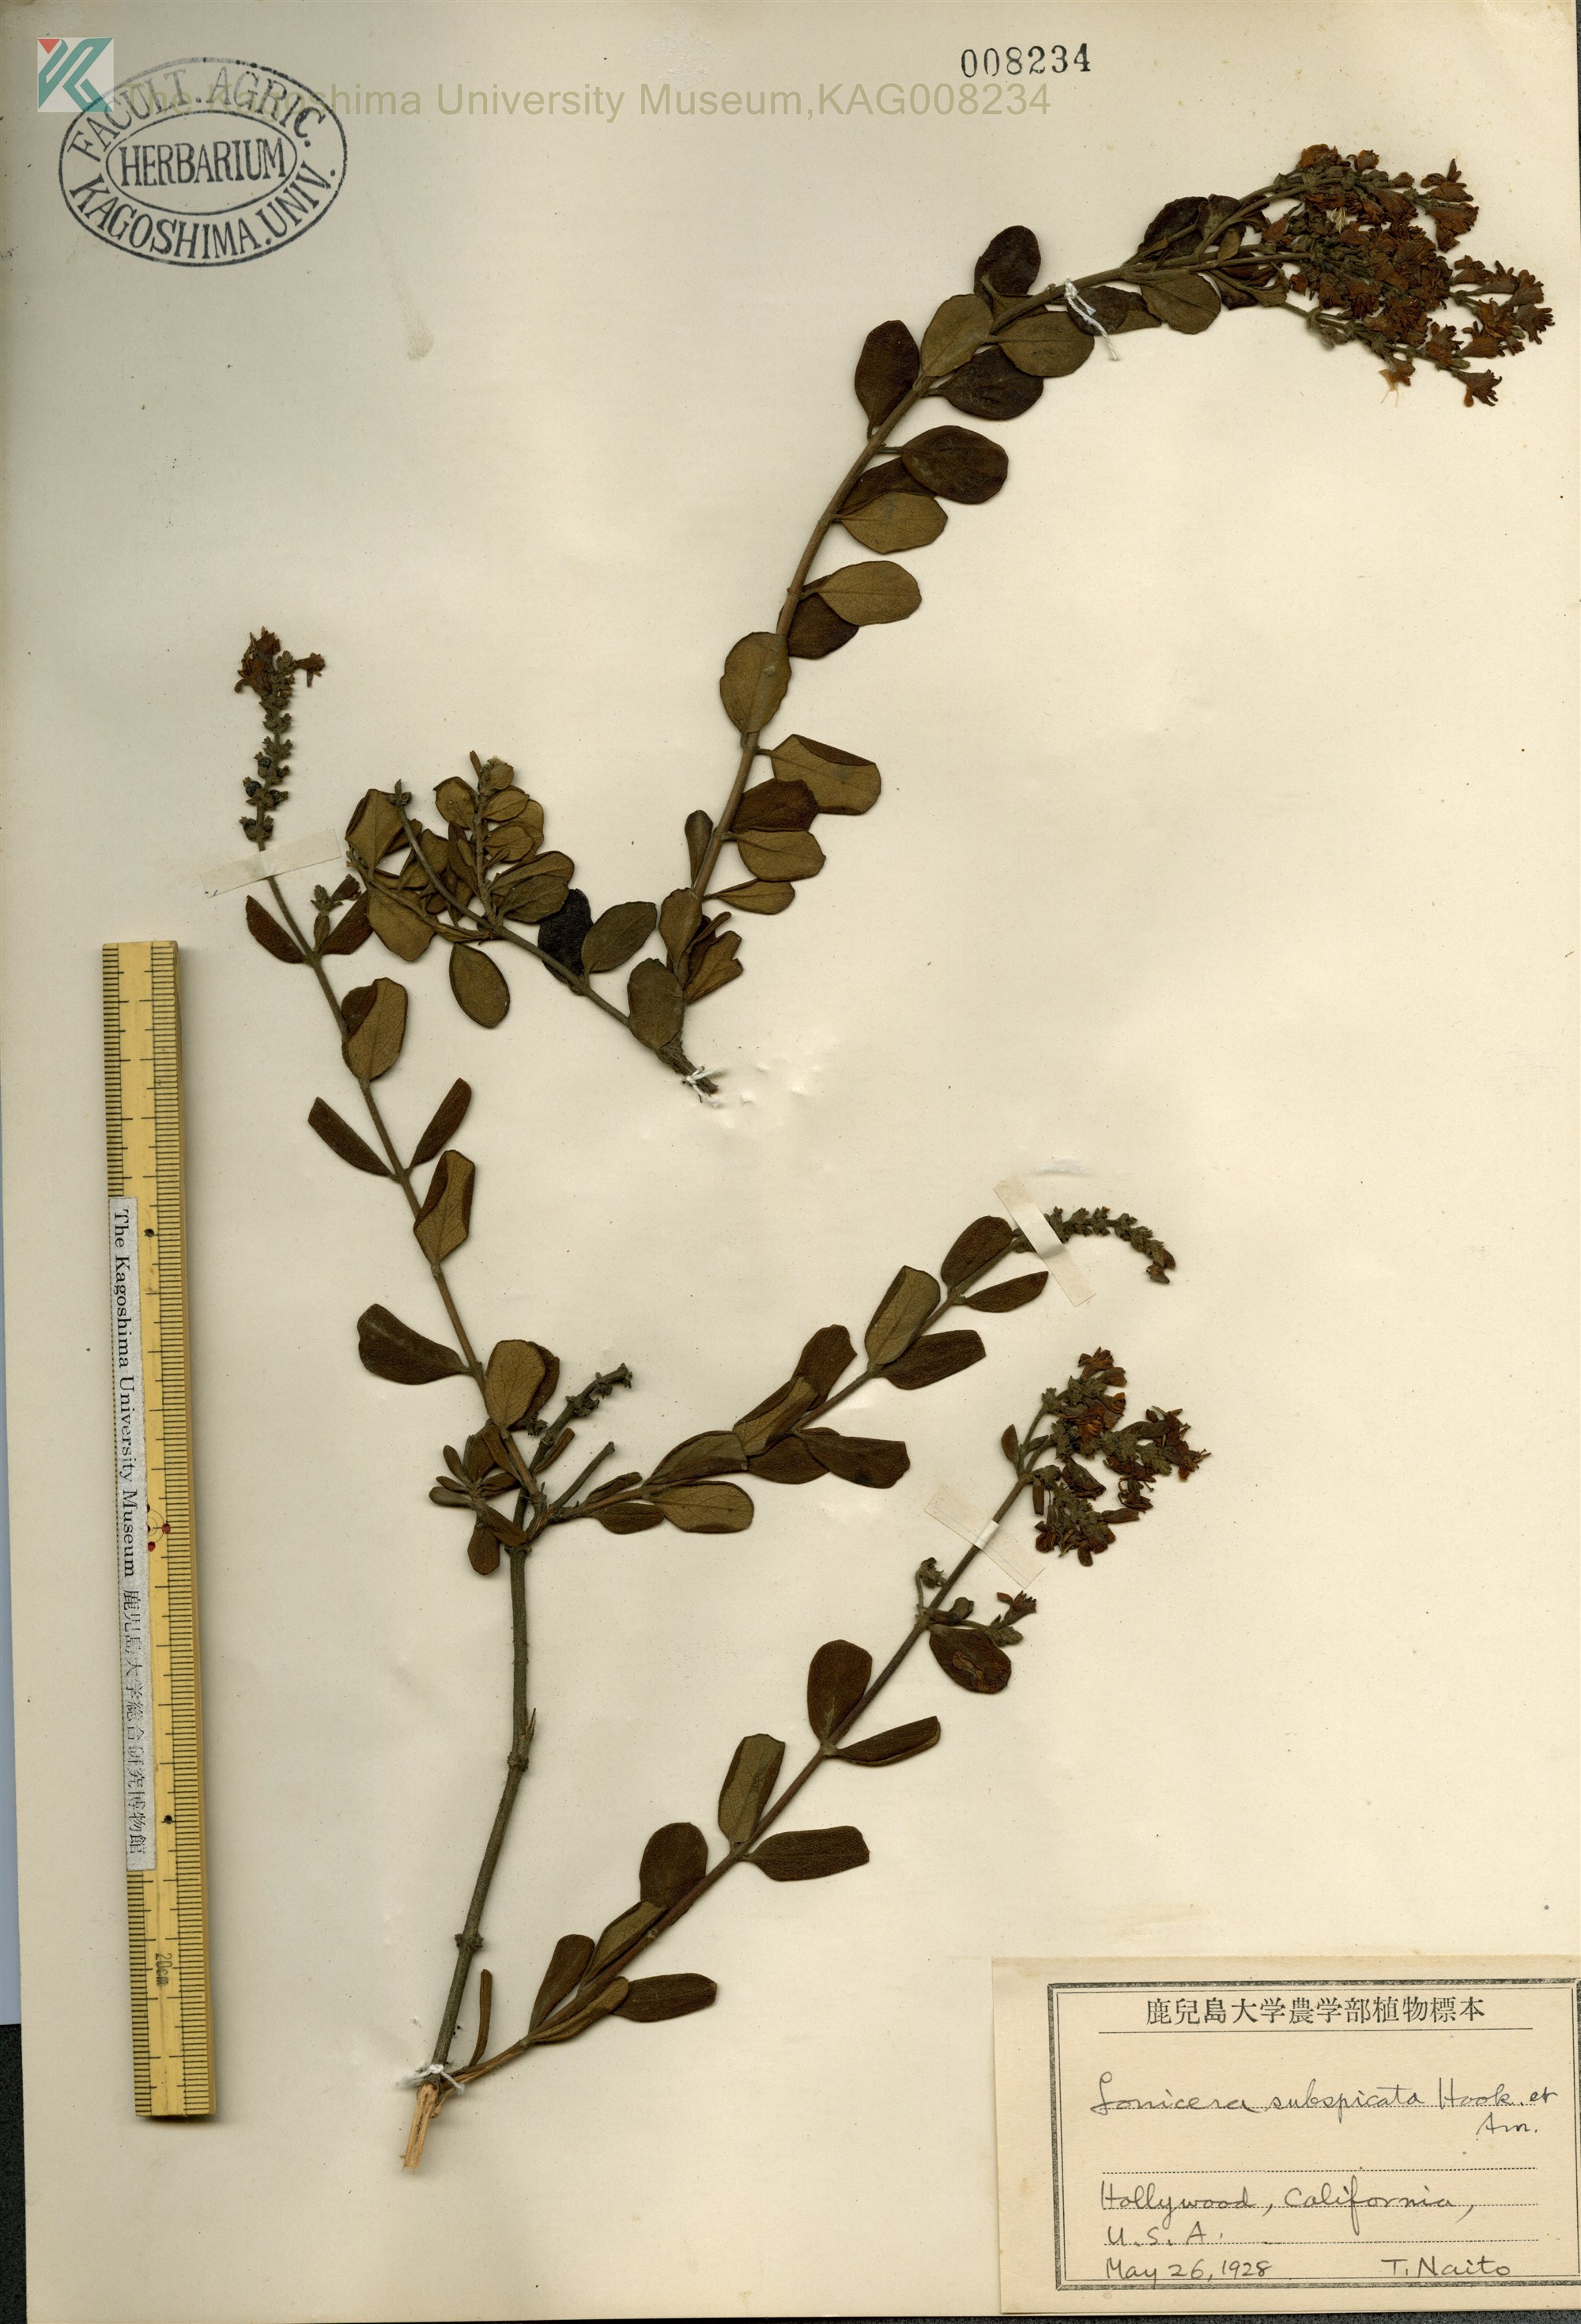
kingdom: Plantae
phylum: Tracheophyta
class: Magnoliopsida
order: Dipsacales
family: Caprifoliaceae
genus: Lonicera
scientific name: Lonicera subspicata
